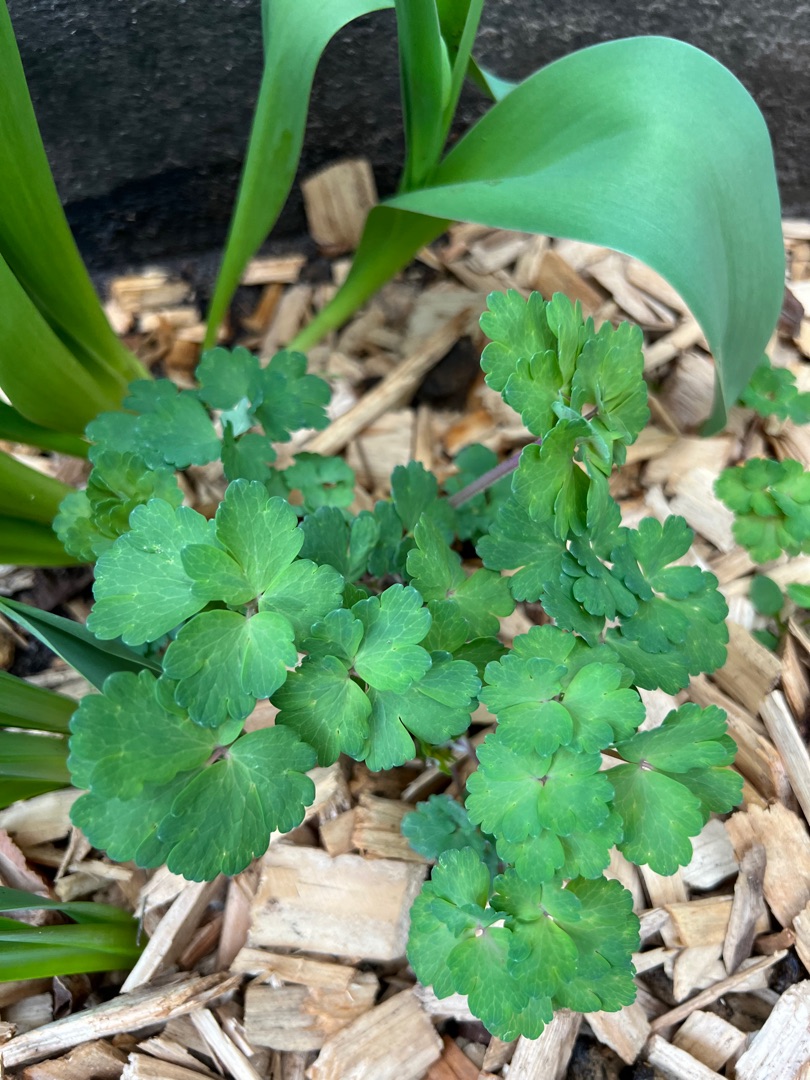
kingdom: Plantae
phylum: Tracheophyta
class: Magnoliopsida
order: Ranunculales
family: Ranunculaceae
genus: Aquilegia
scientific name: Aquilegia vulgaris
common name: Akeleje
